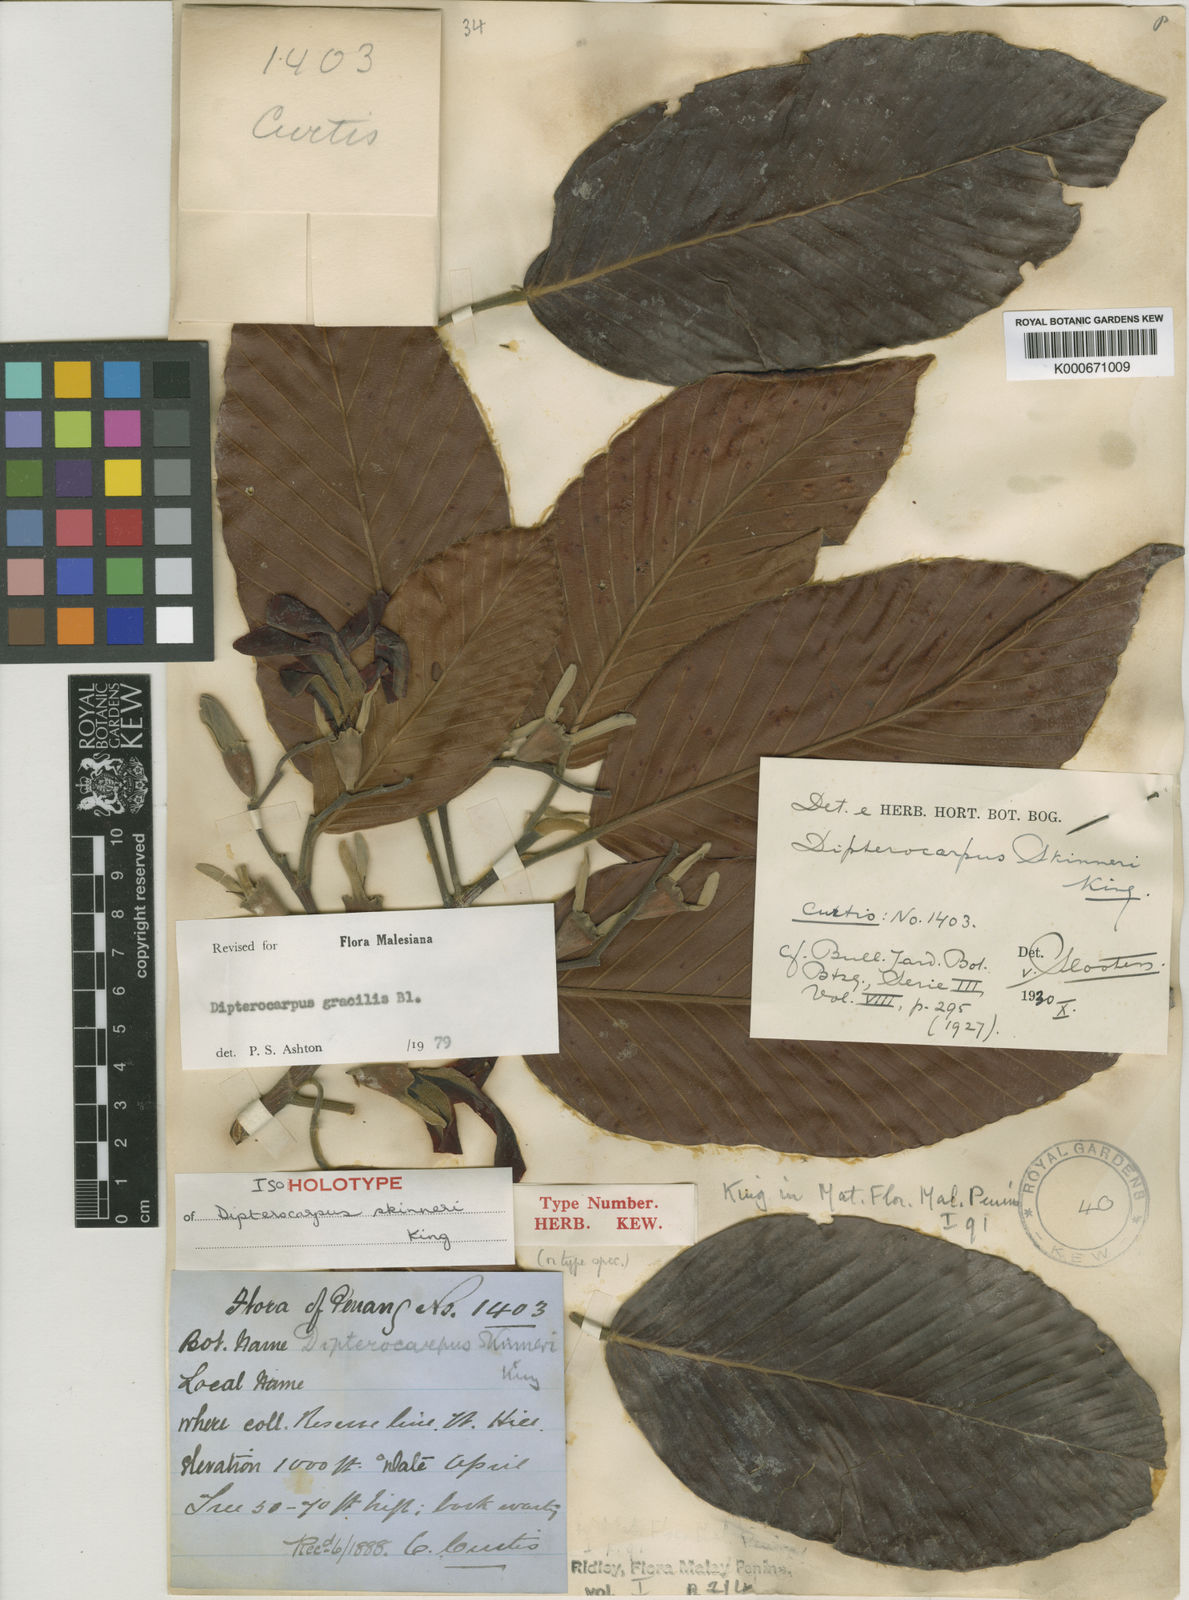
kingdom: Plantae
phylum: Tracheophyta
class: Magnoliopsida
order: Malvales
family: Dipterocarpaceae
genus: Dipterocarpus
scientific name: Dipterocarpus gracilis
